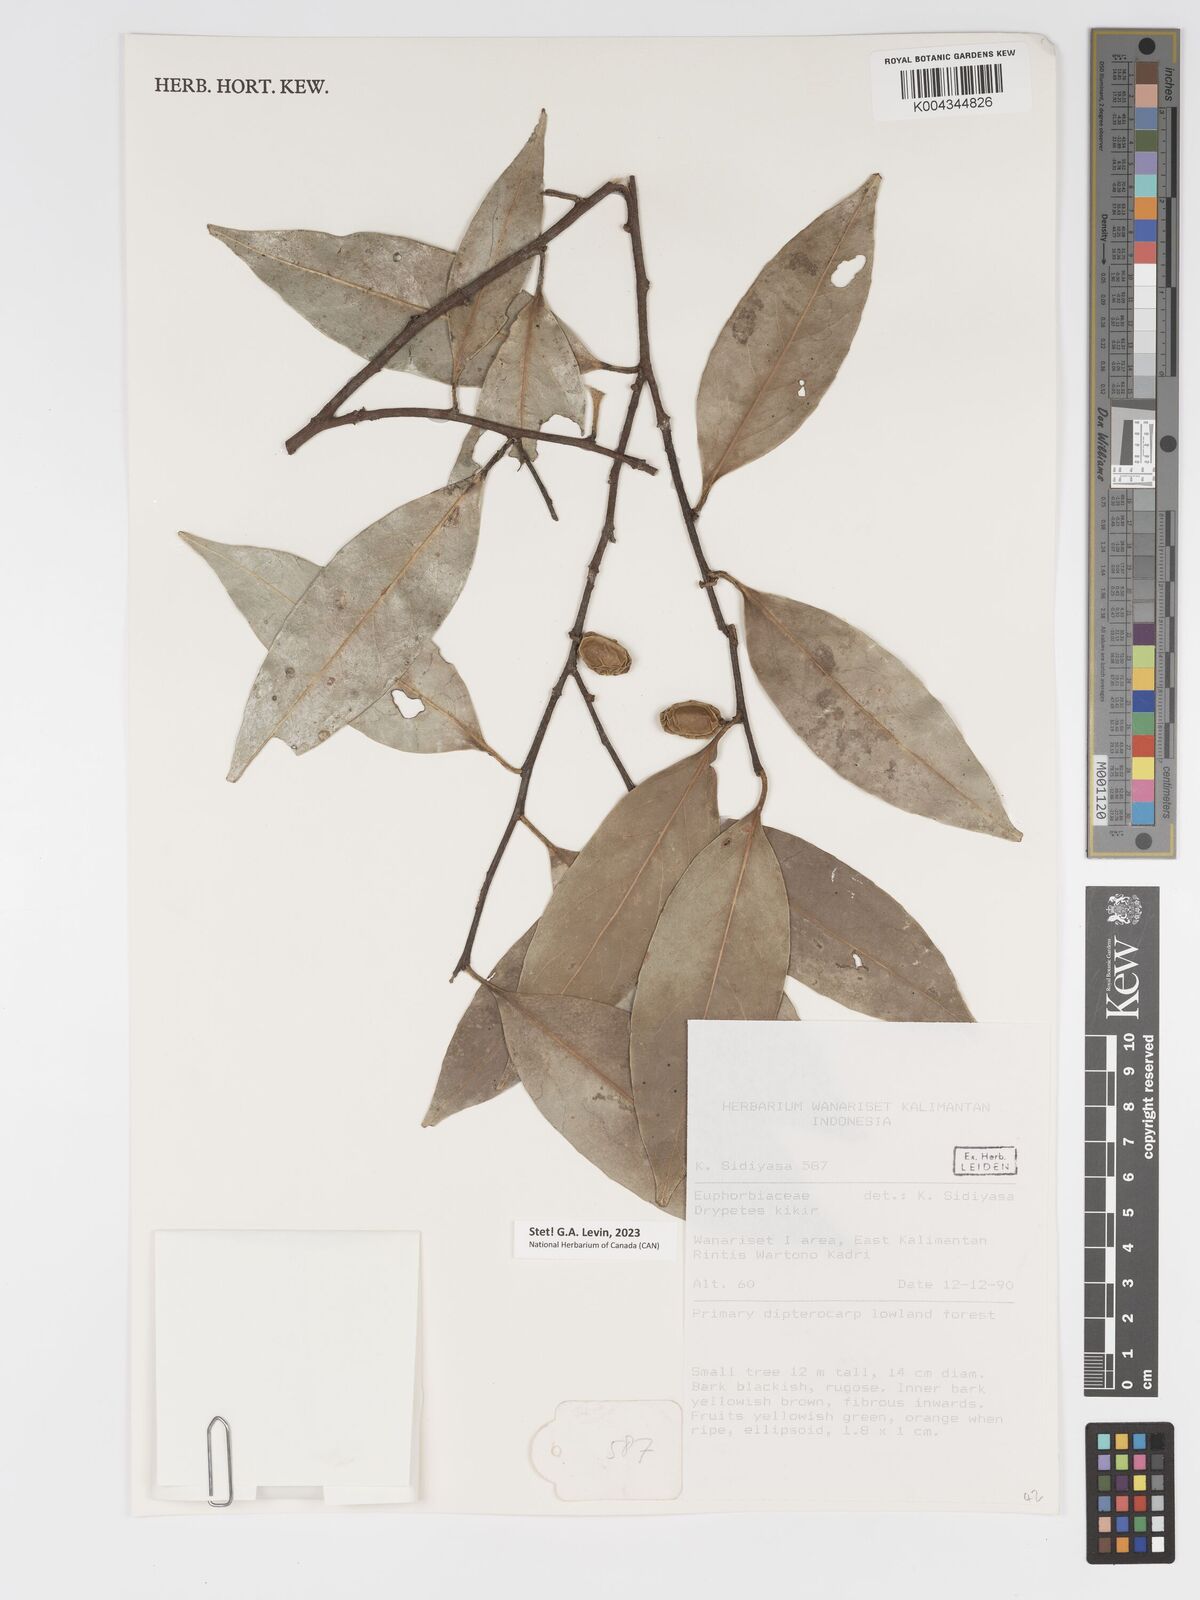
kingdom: Plantae
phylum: Tracheophyta
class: Magnoliopsida
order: Malpighiales
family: Putranjivaceae
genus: Drypetes
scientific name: Drypetes kikir
